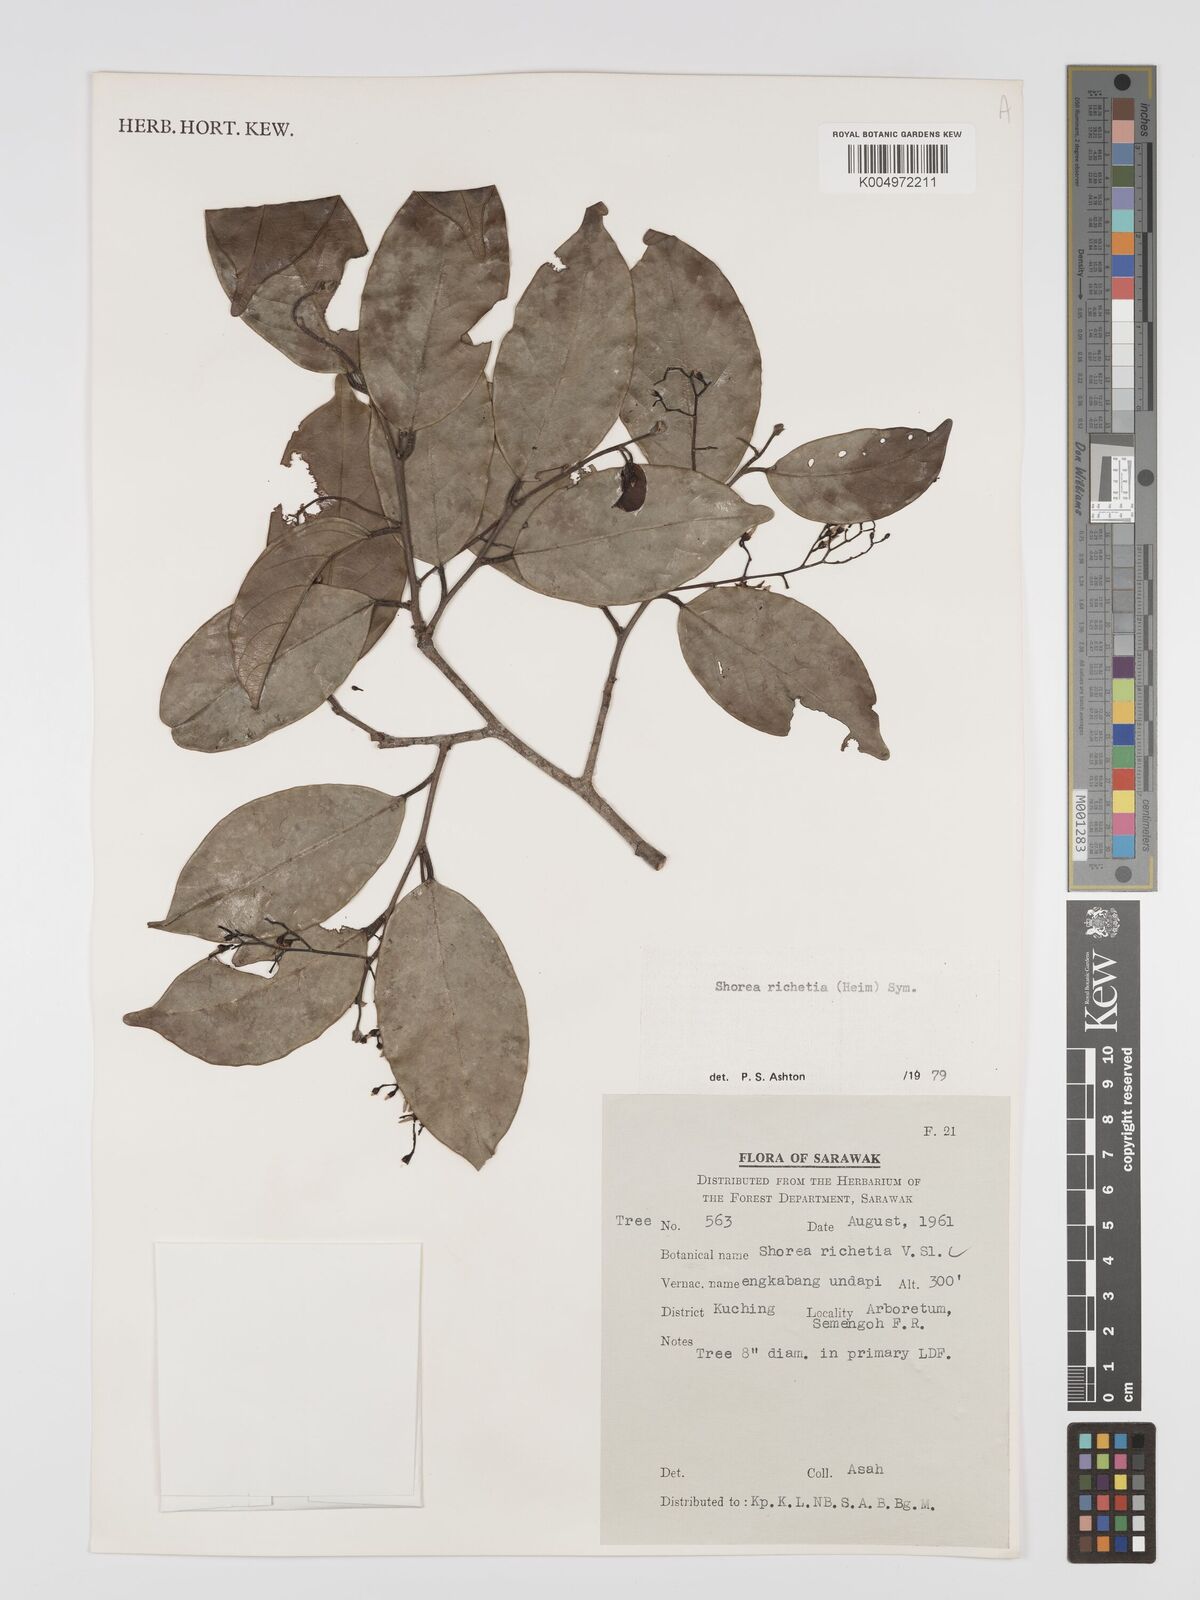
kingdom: Plantae
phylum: Tracheophyta
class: Magnoliopsida
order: Malvales
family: Dipterocarpaceae
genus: Shorea
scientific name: Shorea richetia
